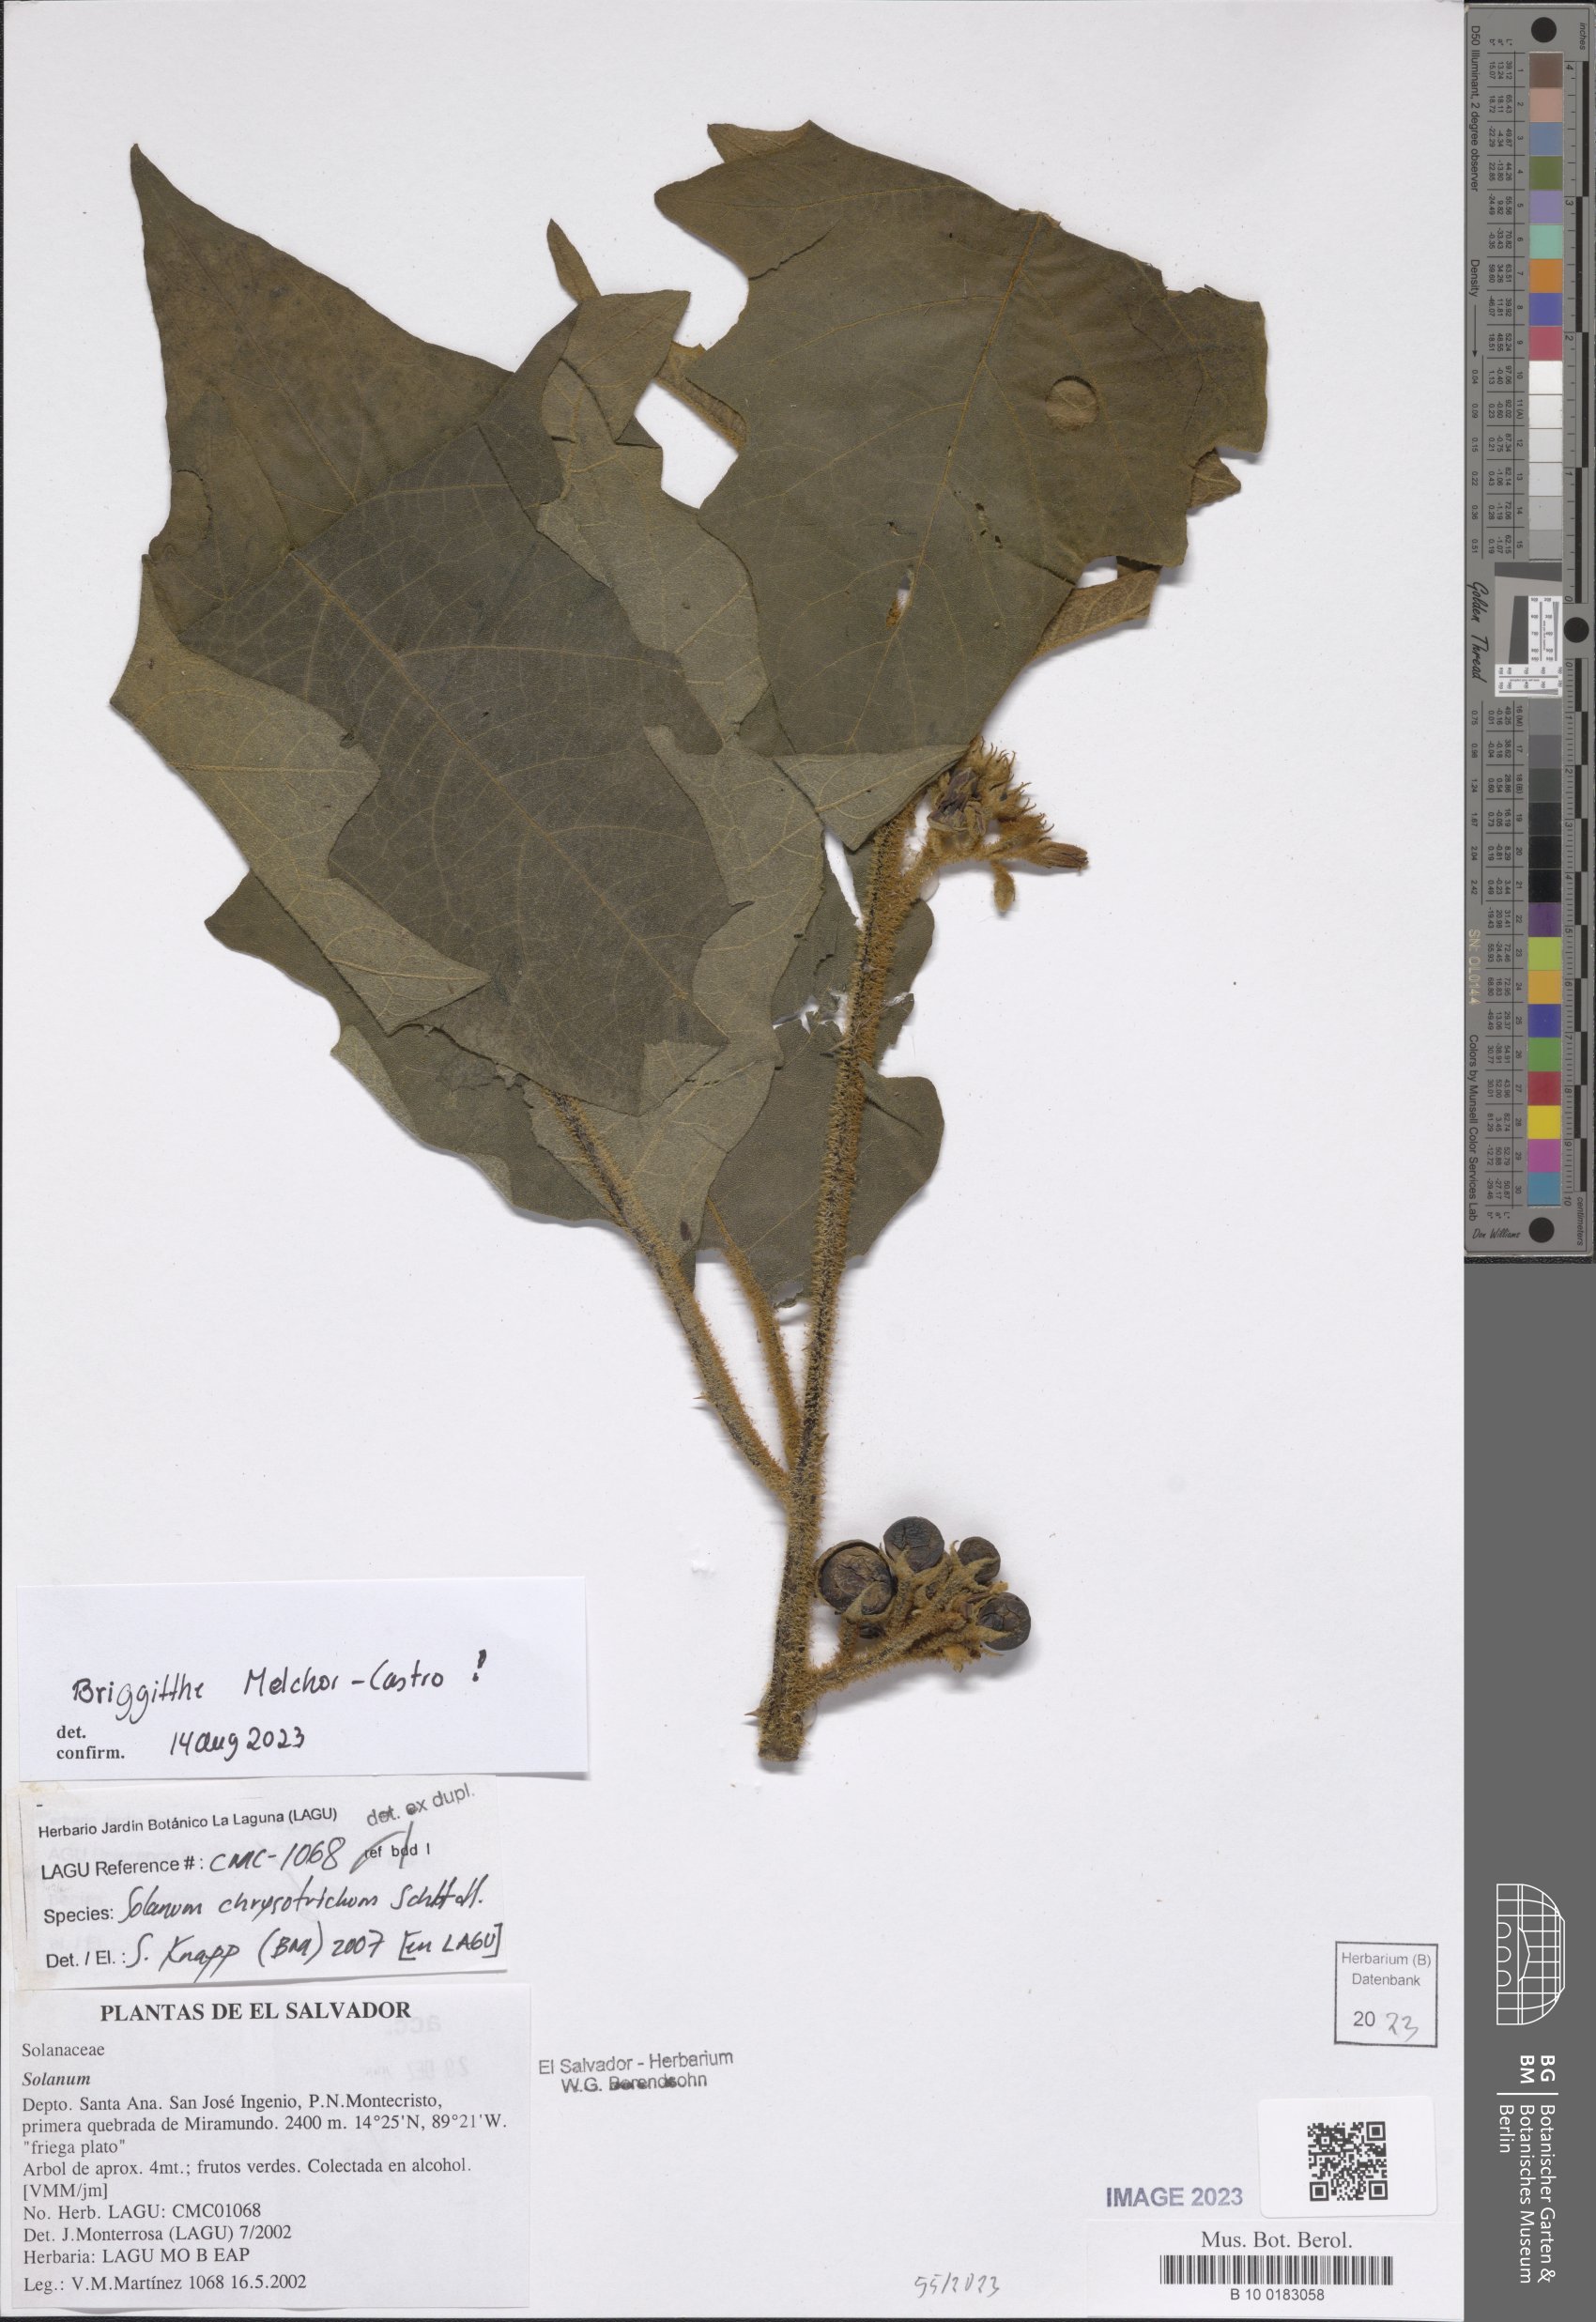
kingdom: Plantae
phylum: Tracheophyta
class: Magnoliopsida
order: Solanales
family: Solanaceae
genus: Solanum
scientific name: Solanum chrysotrichum
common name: Nightshade
